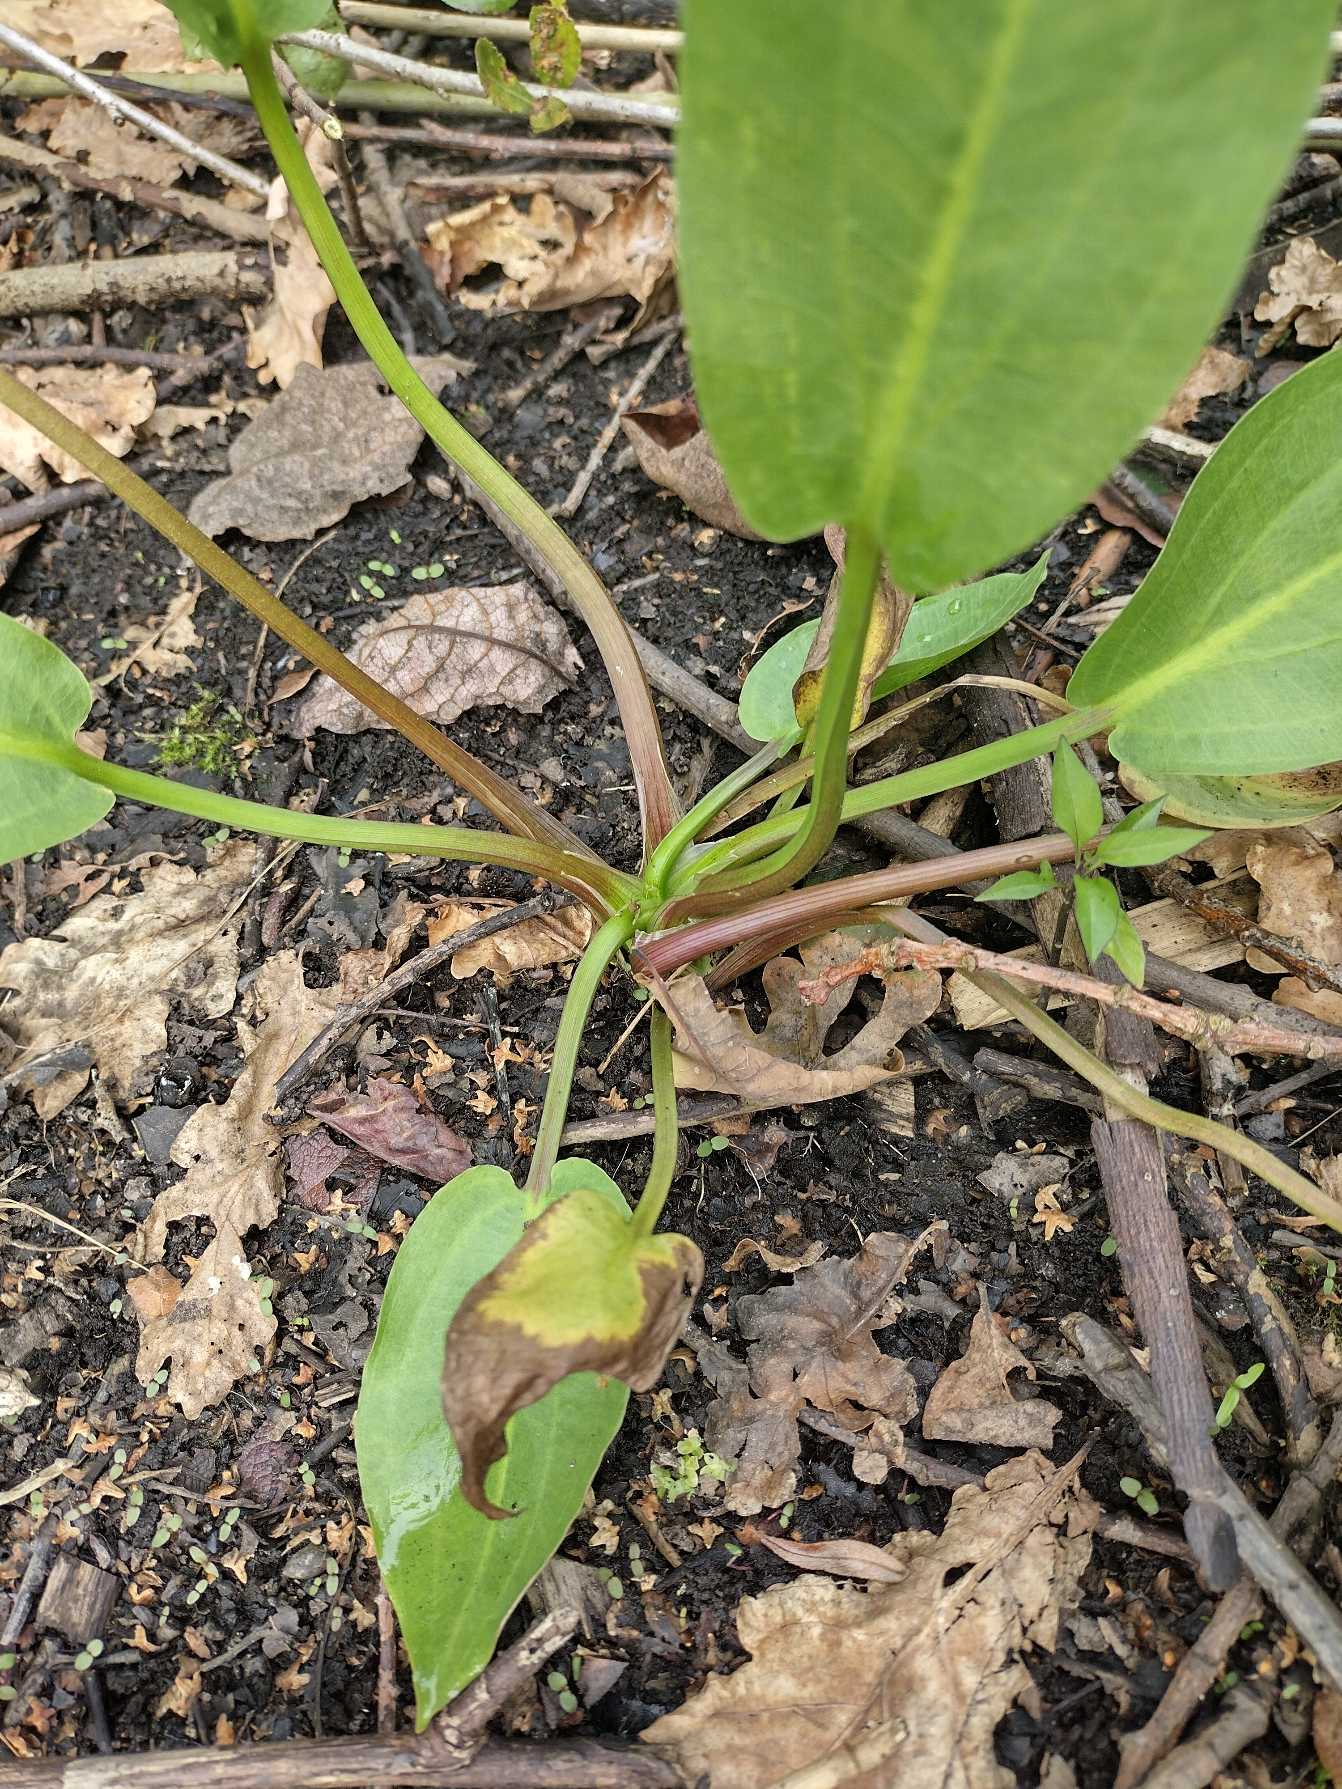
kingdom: Plantae
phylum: Tracheophyta
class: Liliopsida
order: Alismatales
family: Alismataceae
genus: Alisma
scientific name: Alisma plantago-aquatica
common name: Vejbred-skeblad
